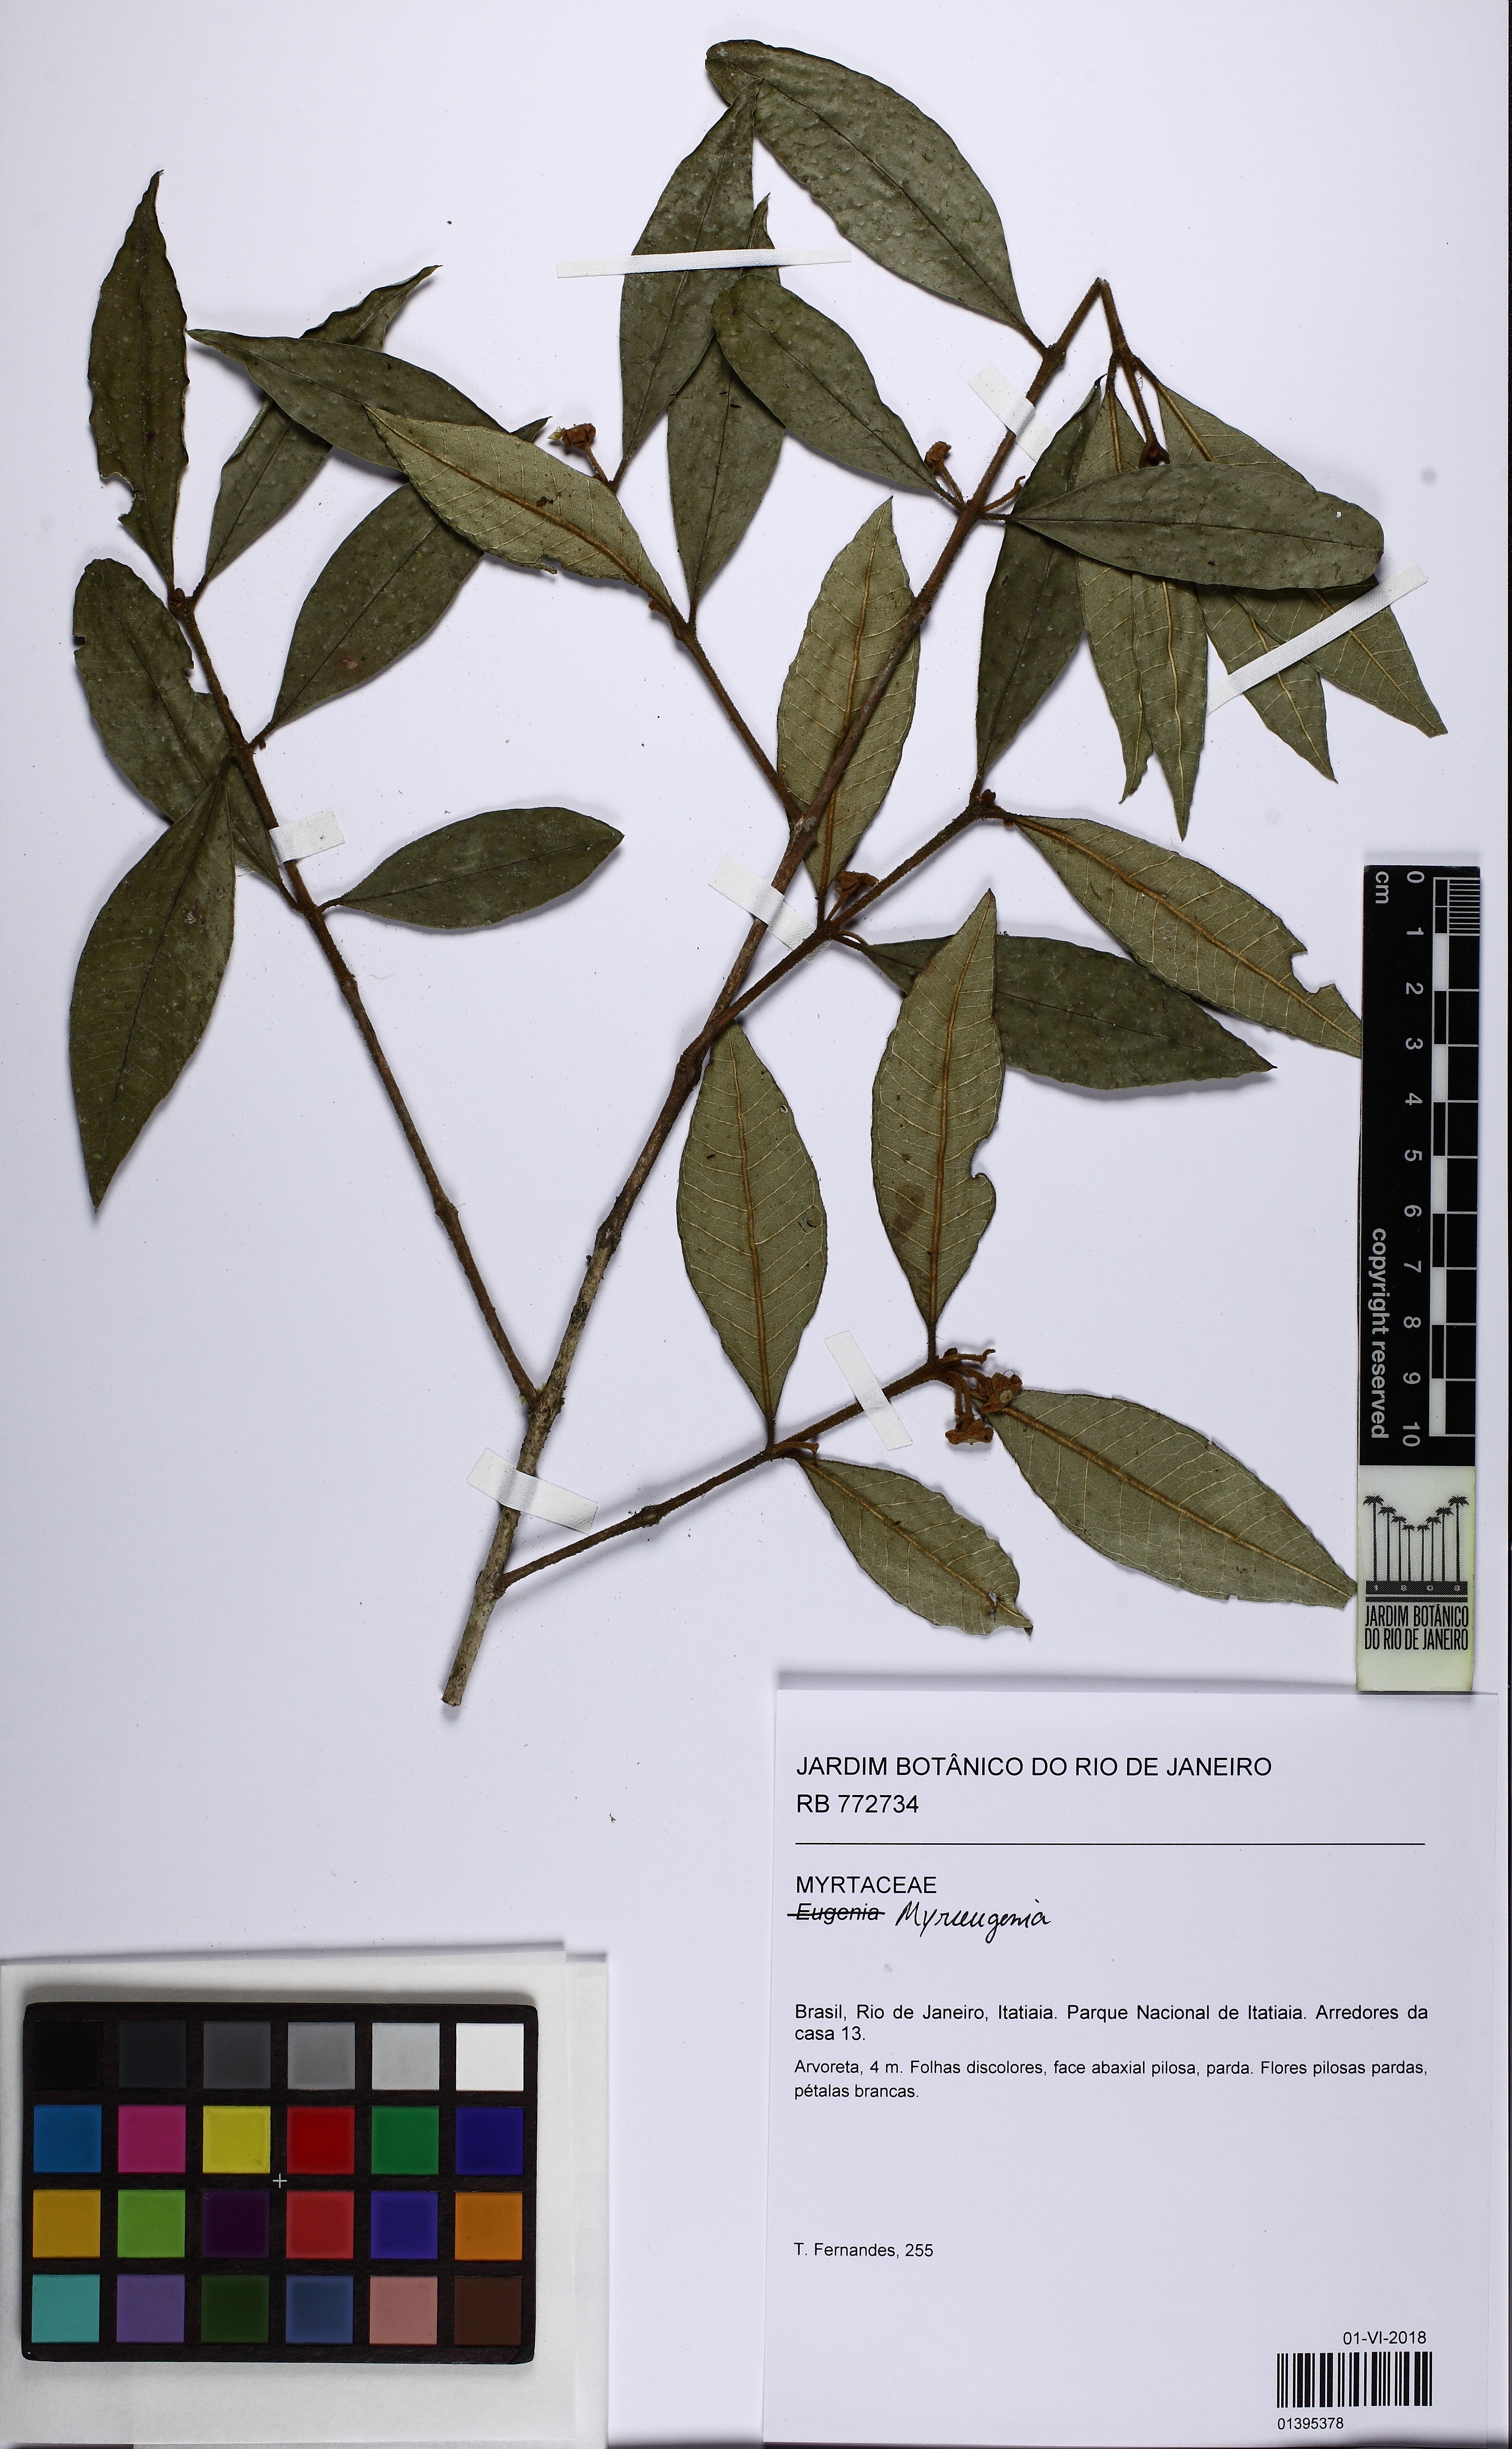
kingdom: Plantae
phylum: Tracheophyta
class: Magnoliopsida
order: Myrtales
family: Myrtaceae
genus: Myrceugenia
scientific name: Myrceugenia miersiana
